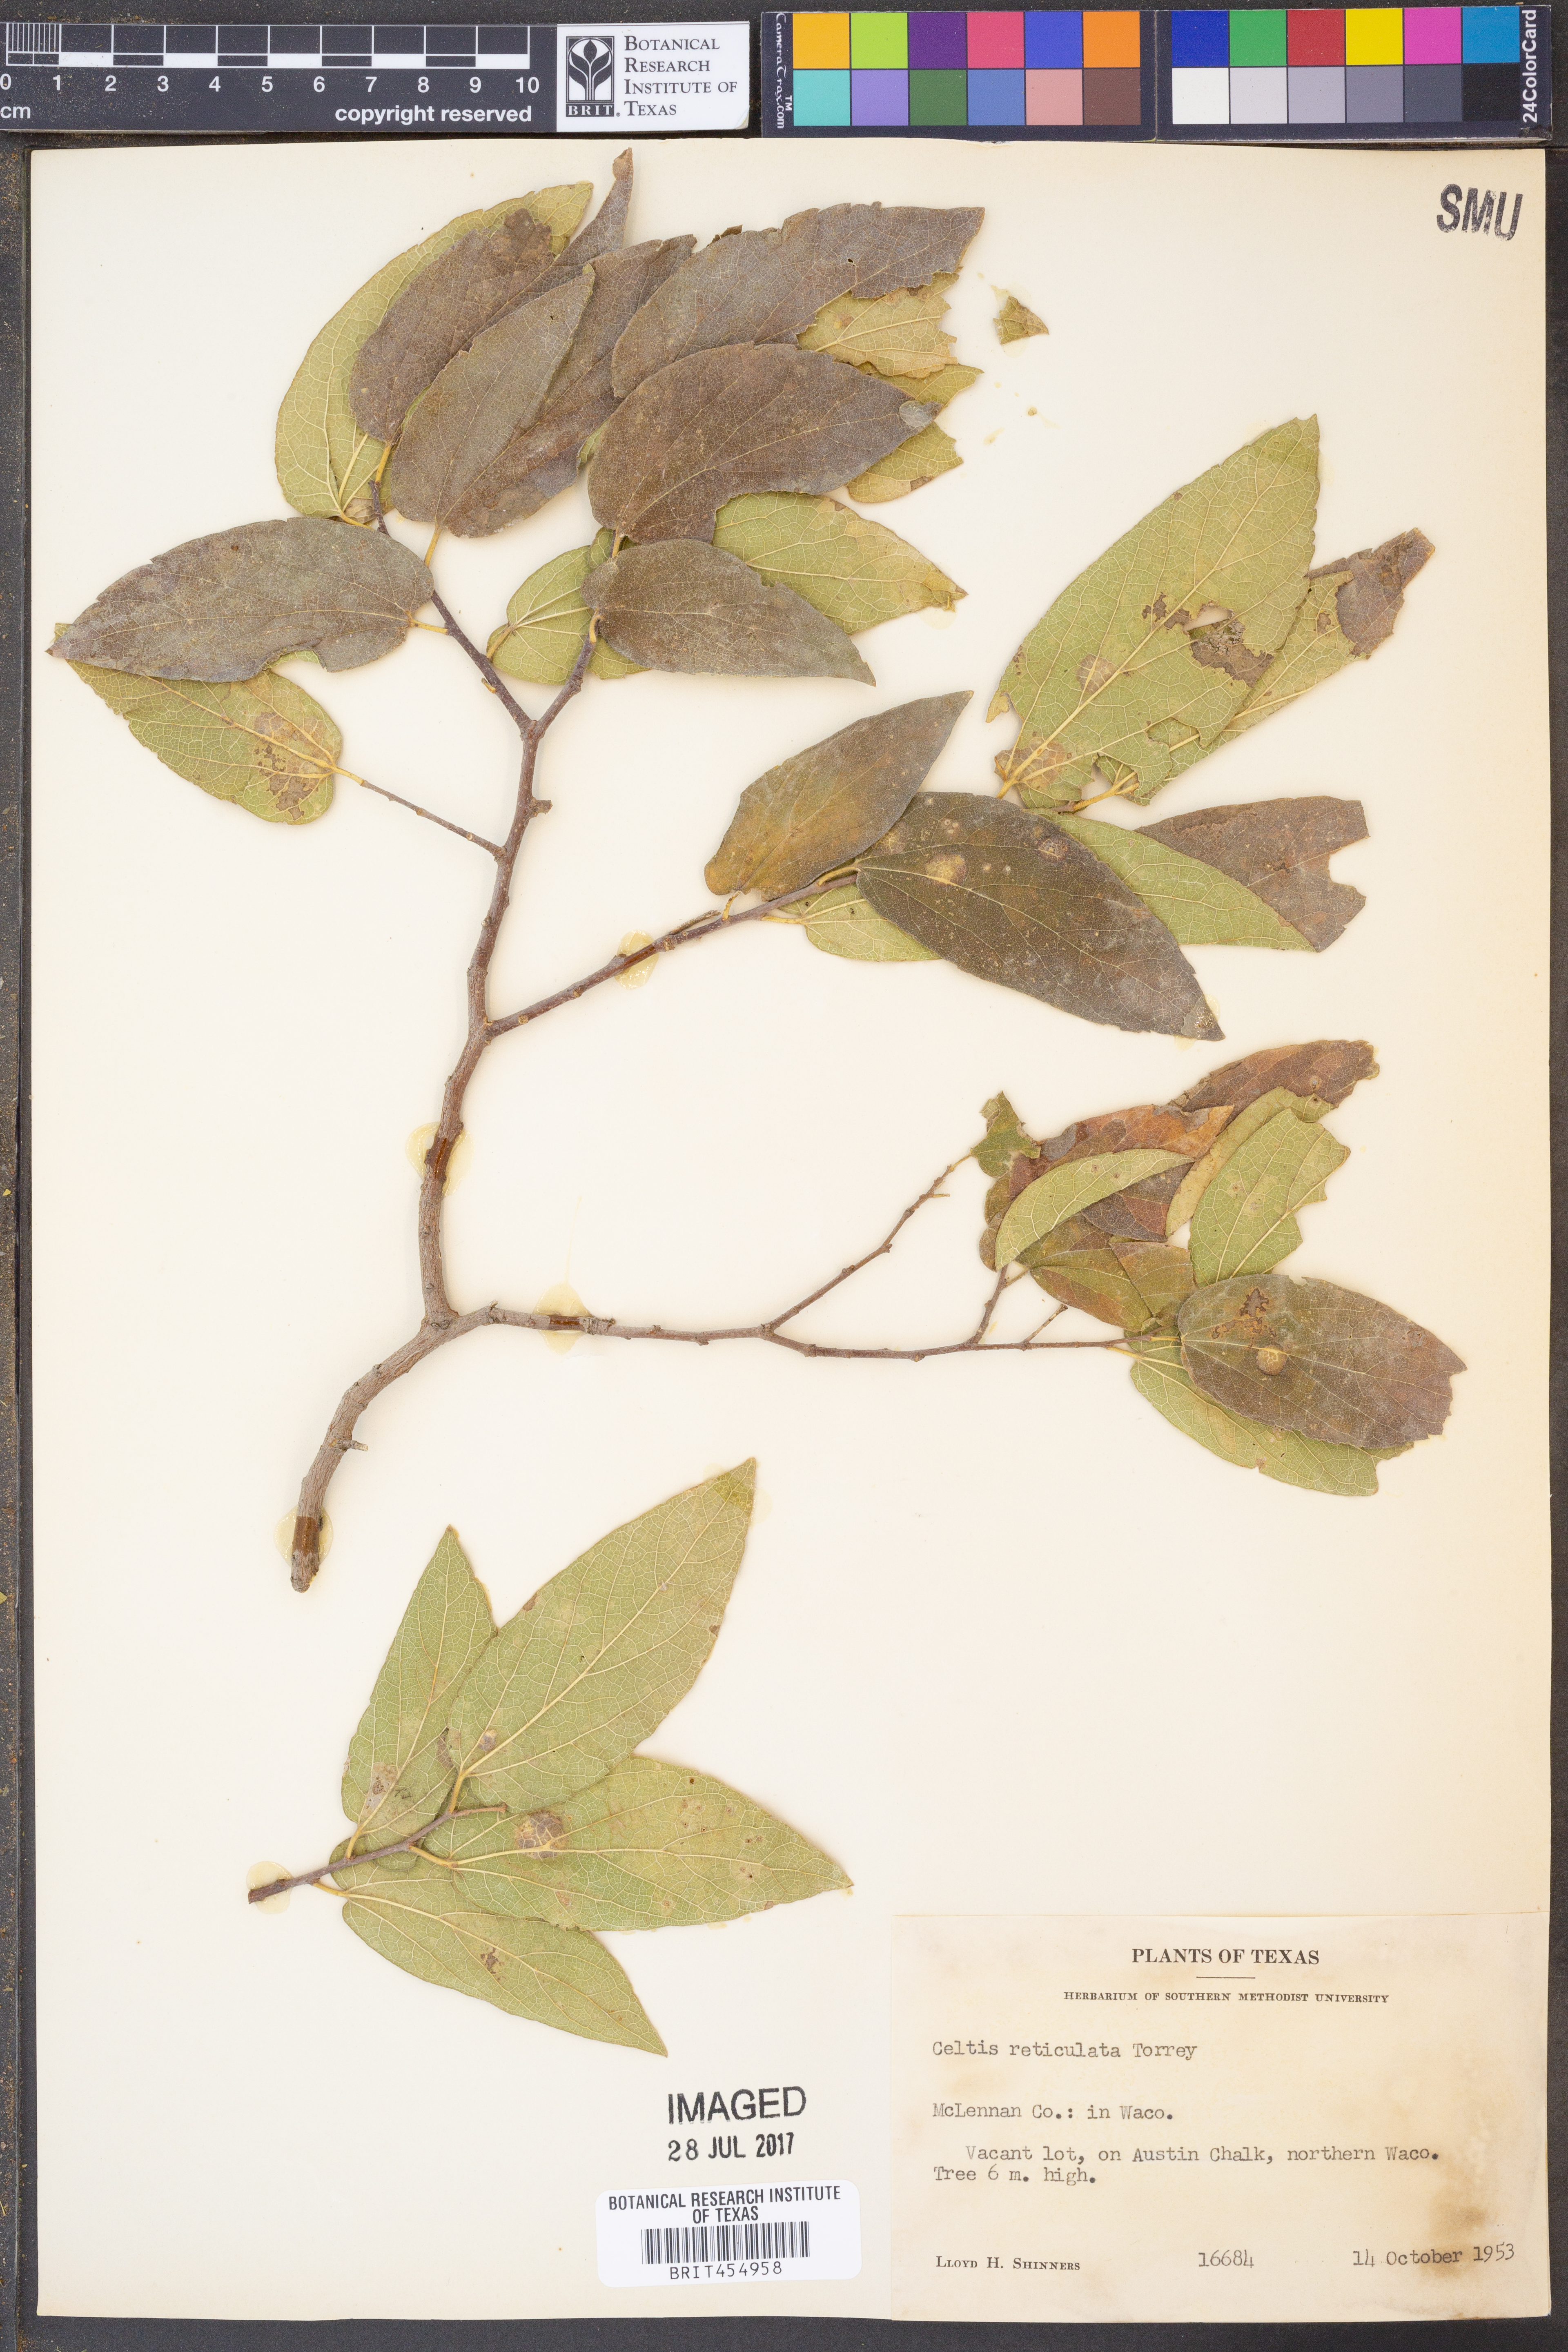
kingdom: Plantae
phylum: Tracheophyta
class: Magnoliopsida
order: Rosales
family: Cannabaceae
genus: Celtis
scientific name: Celtis reticulata
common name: Netleaf hackberry
